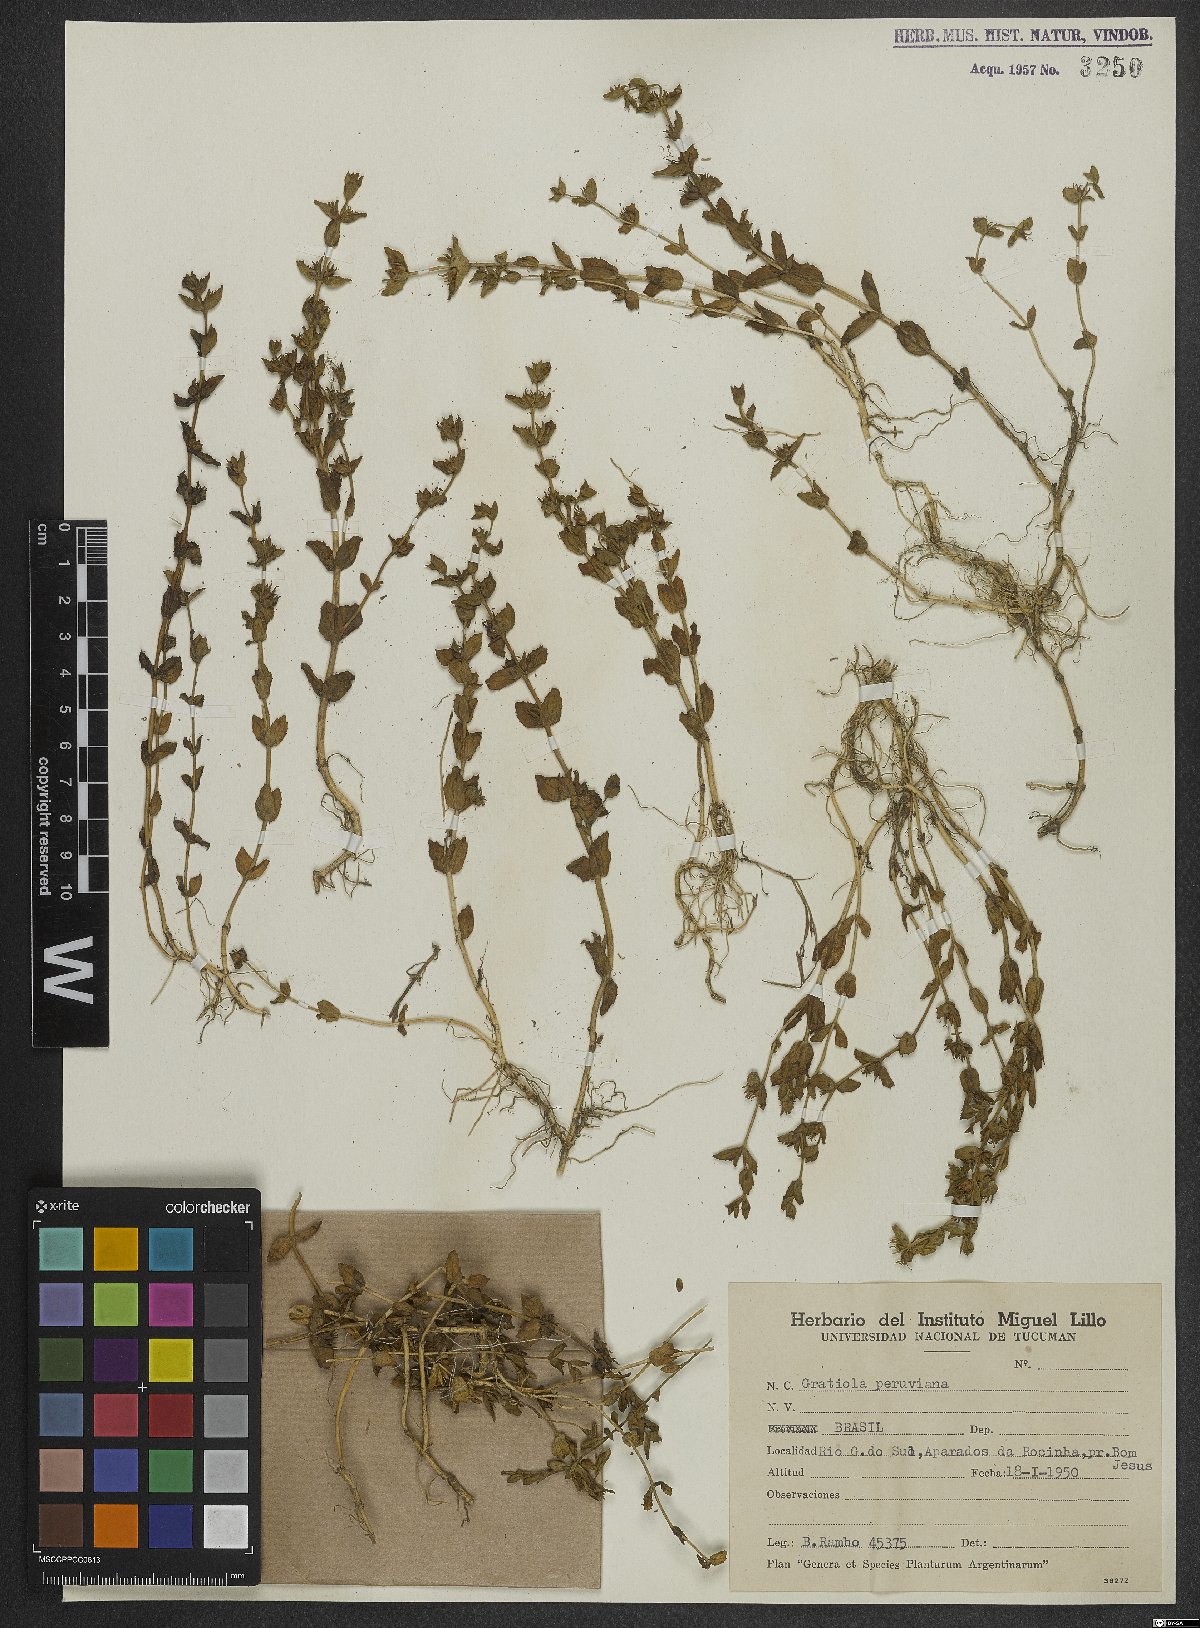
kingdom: Plantae
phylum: Tracheophyta
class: Magnoliopsida
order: Lamiales
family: Plantaginaceae
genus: Gratiola
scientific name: Gratiola peruviana
